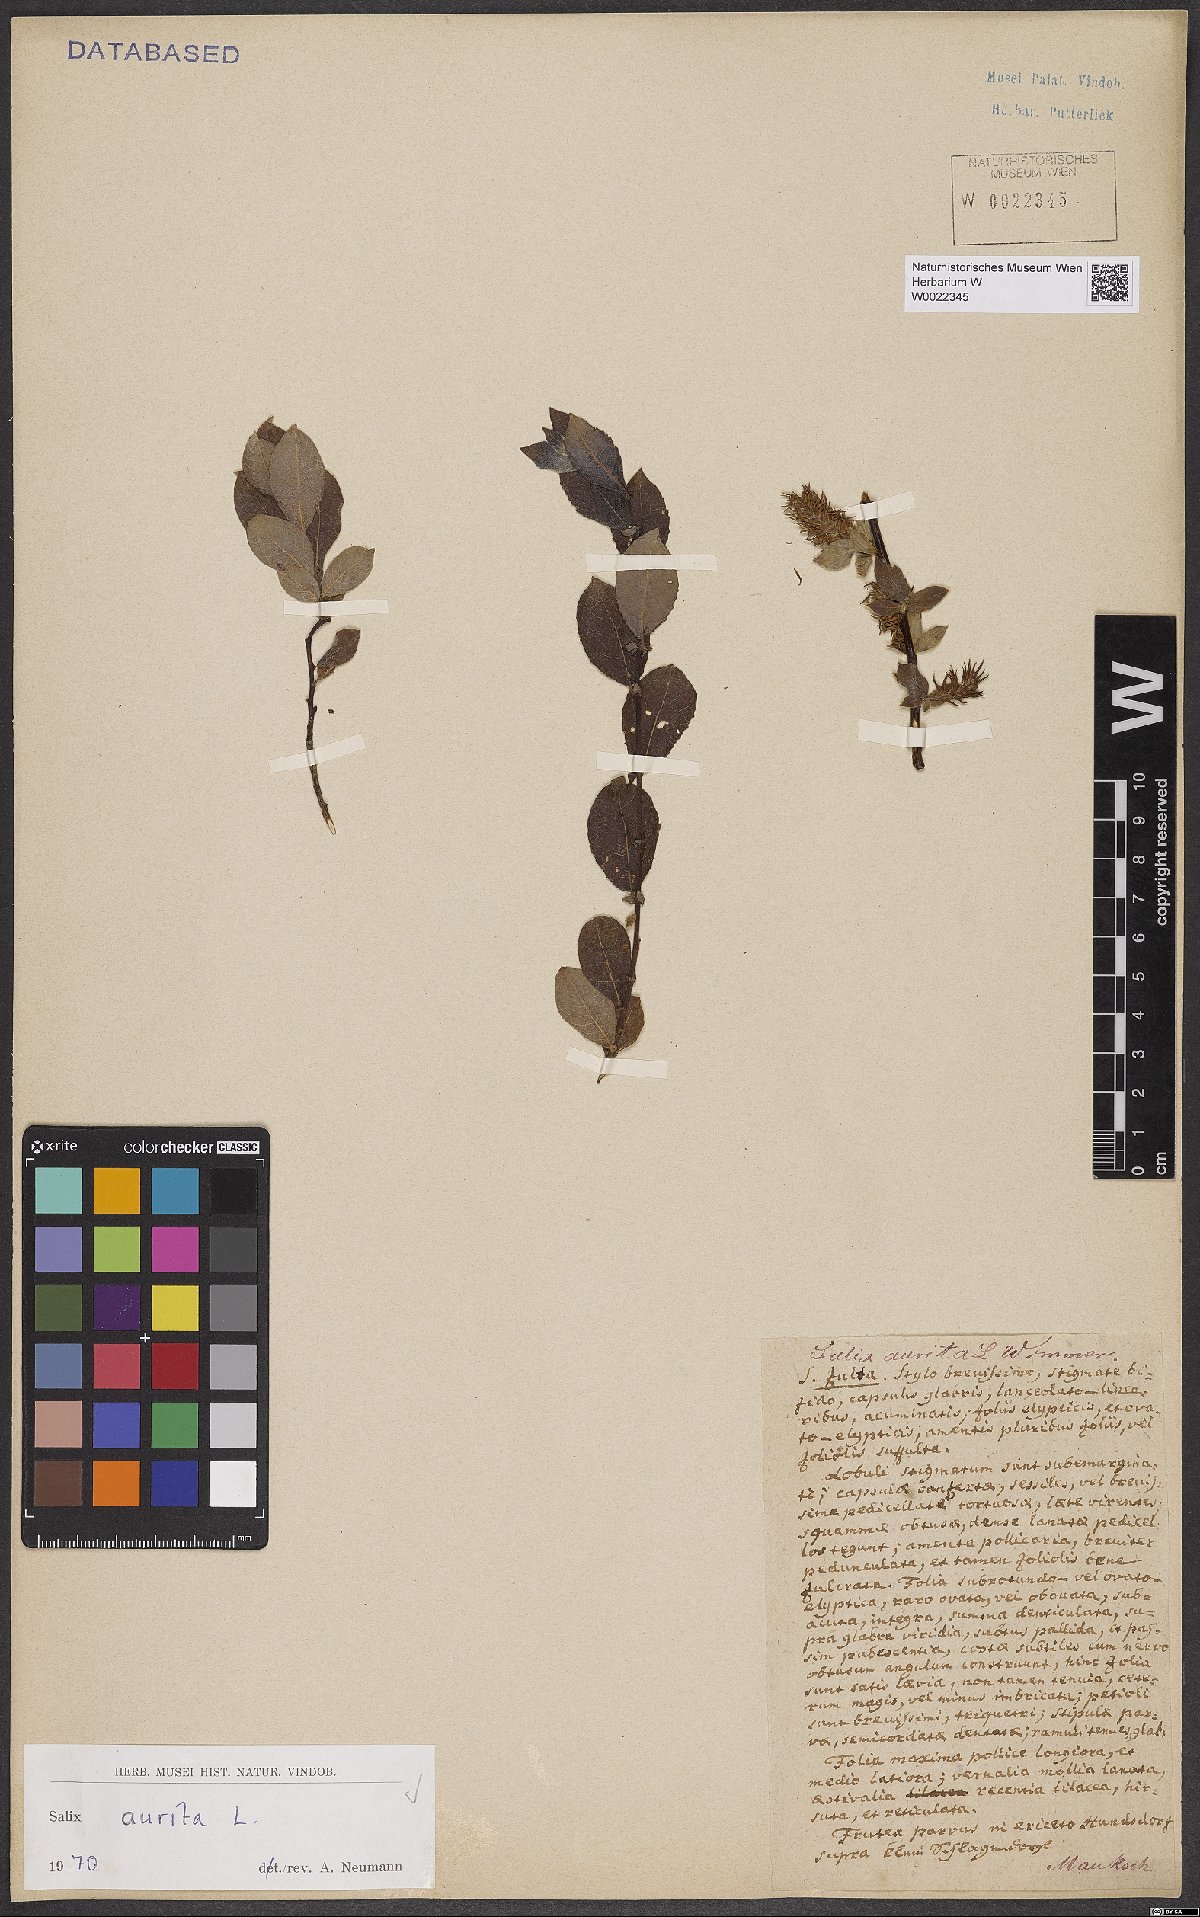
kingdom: Plantae
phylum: Tracheophyta
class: Magnoliopsida
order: Malpighiales
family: Salicaceae
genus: Salix
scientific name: Salix aurita
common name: Eared willow
